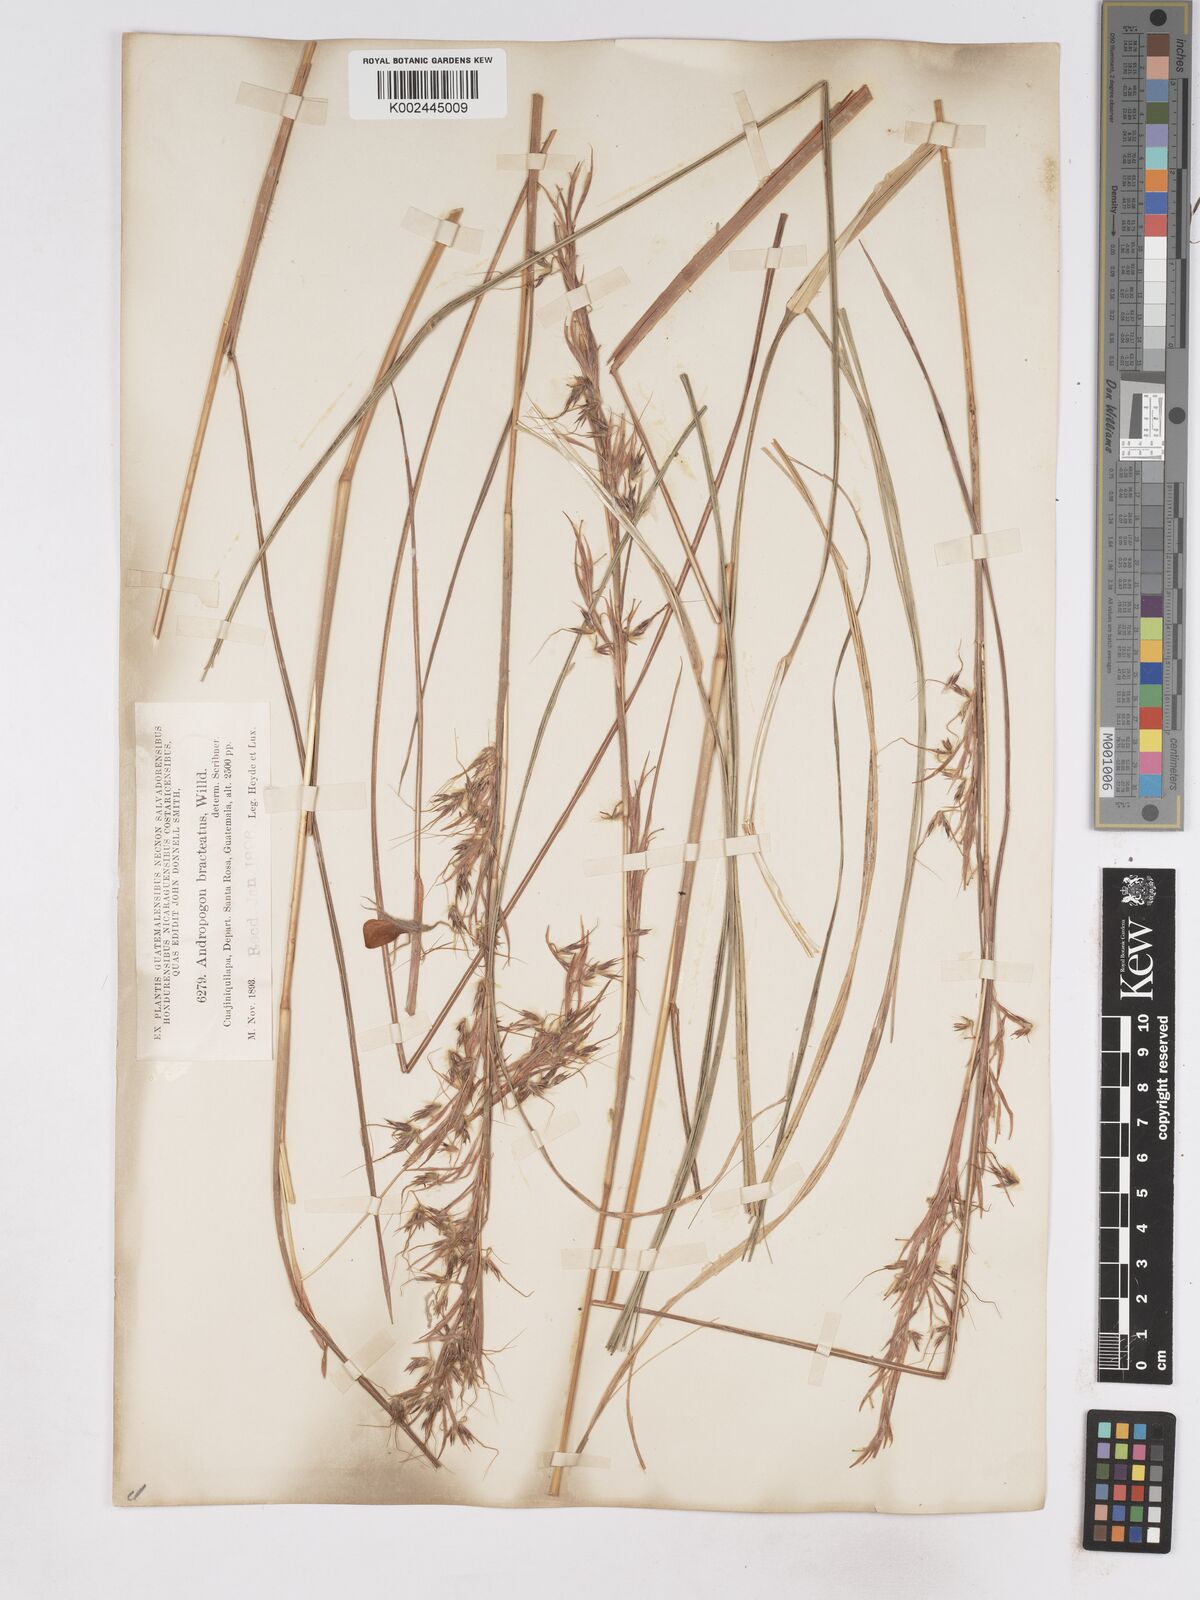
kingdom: Plantae
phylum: Tracheophyta
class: Liliopsida
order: Poales
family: Poaceae
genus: Hyparrhenia
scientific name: Hyparrhenia bracteata
